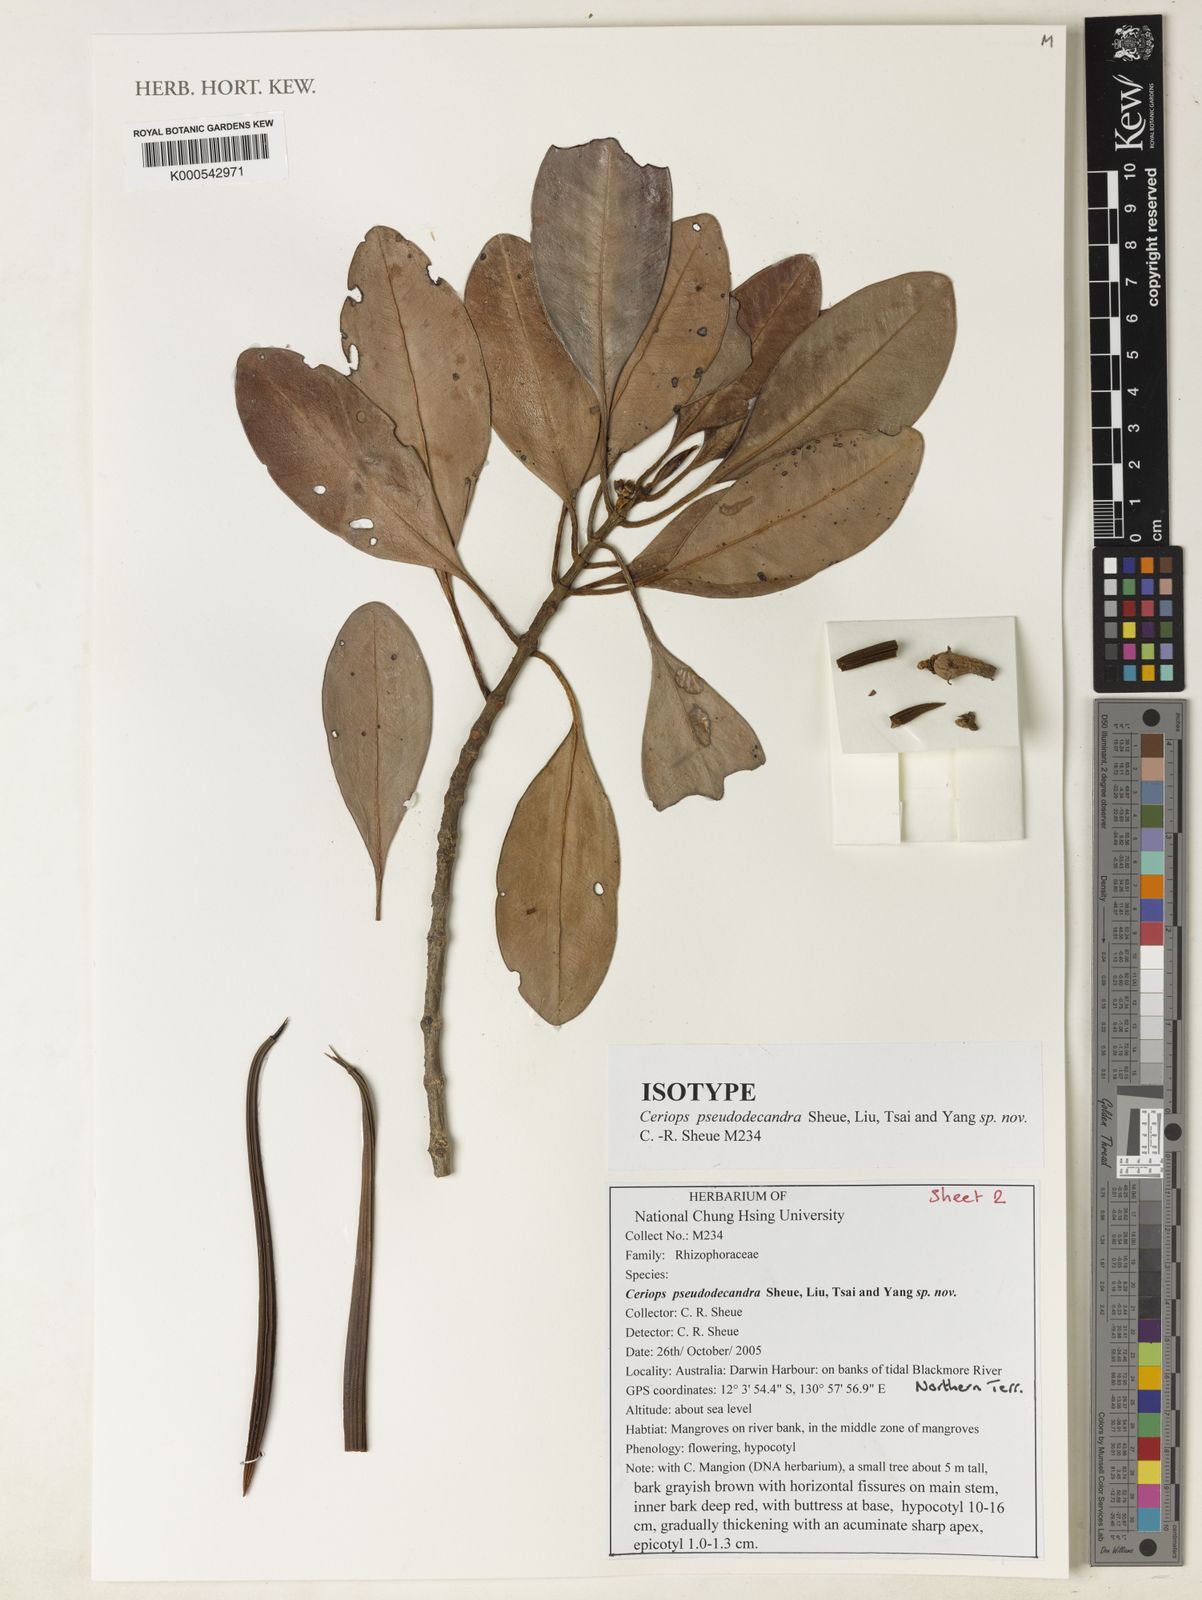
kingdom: Plantae
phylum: Tracheophyta
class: Magnoliopsida
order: Malpighiales
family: Rhizophoraceae
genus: Ceriops
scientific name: Ceriops pseudodecandra
